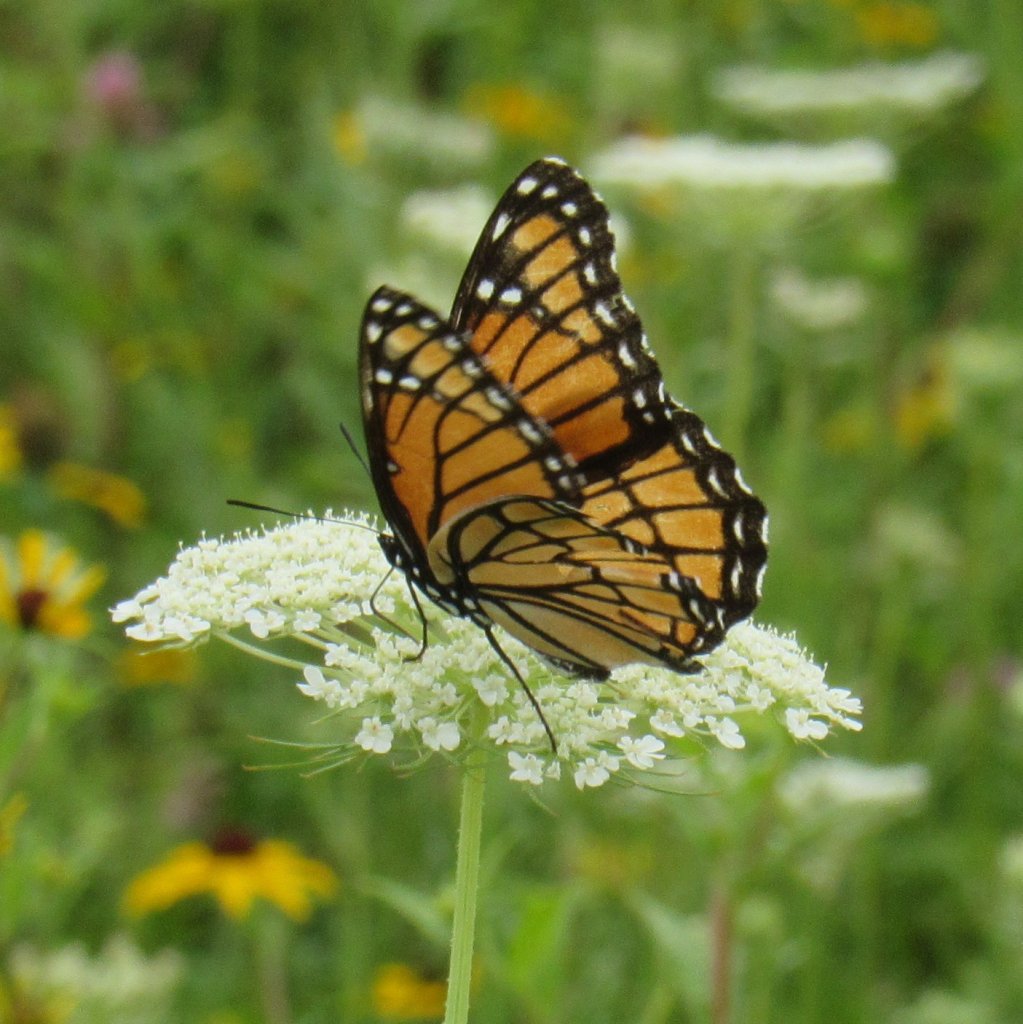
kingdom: Animalia
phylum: Arthropoda
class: Insecta
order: Lepidoptera
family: Nymphalidae
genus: Limenitis
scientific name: Limenitis archippus
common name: Viceroy
